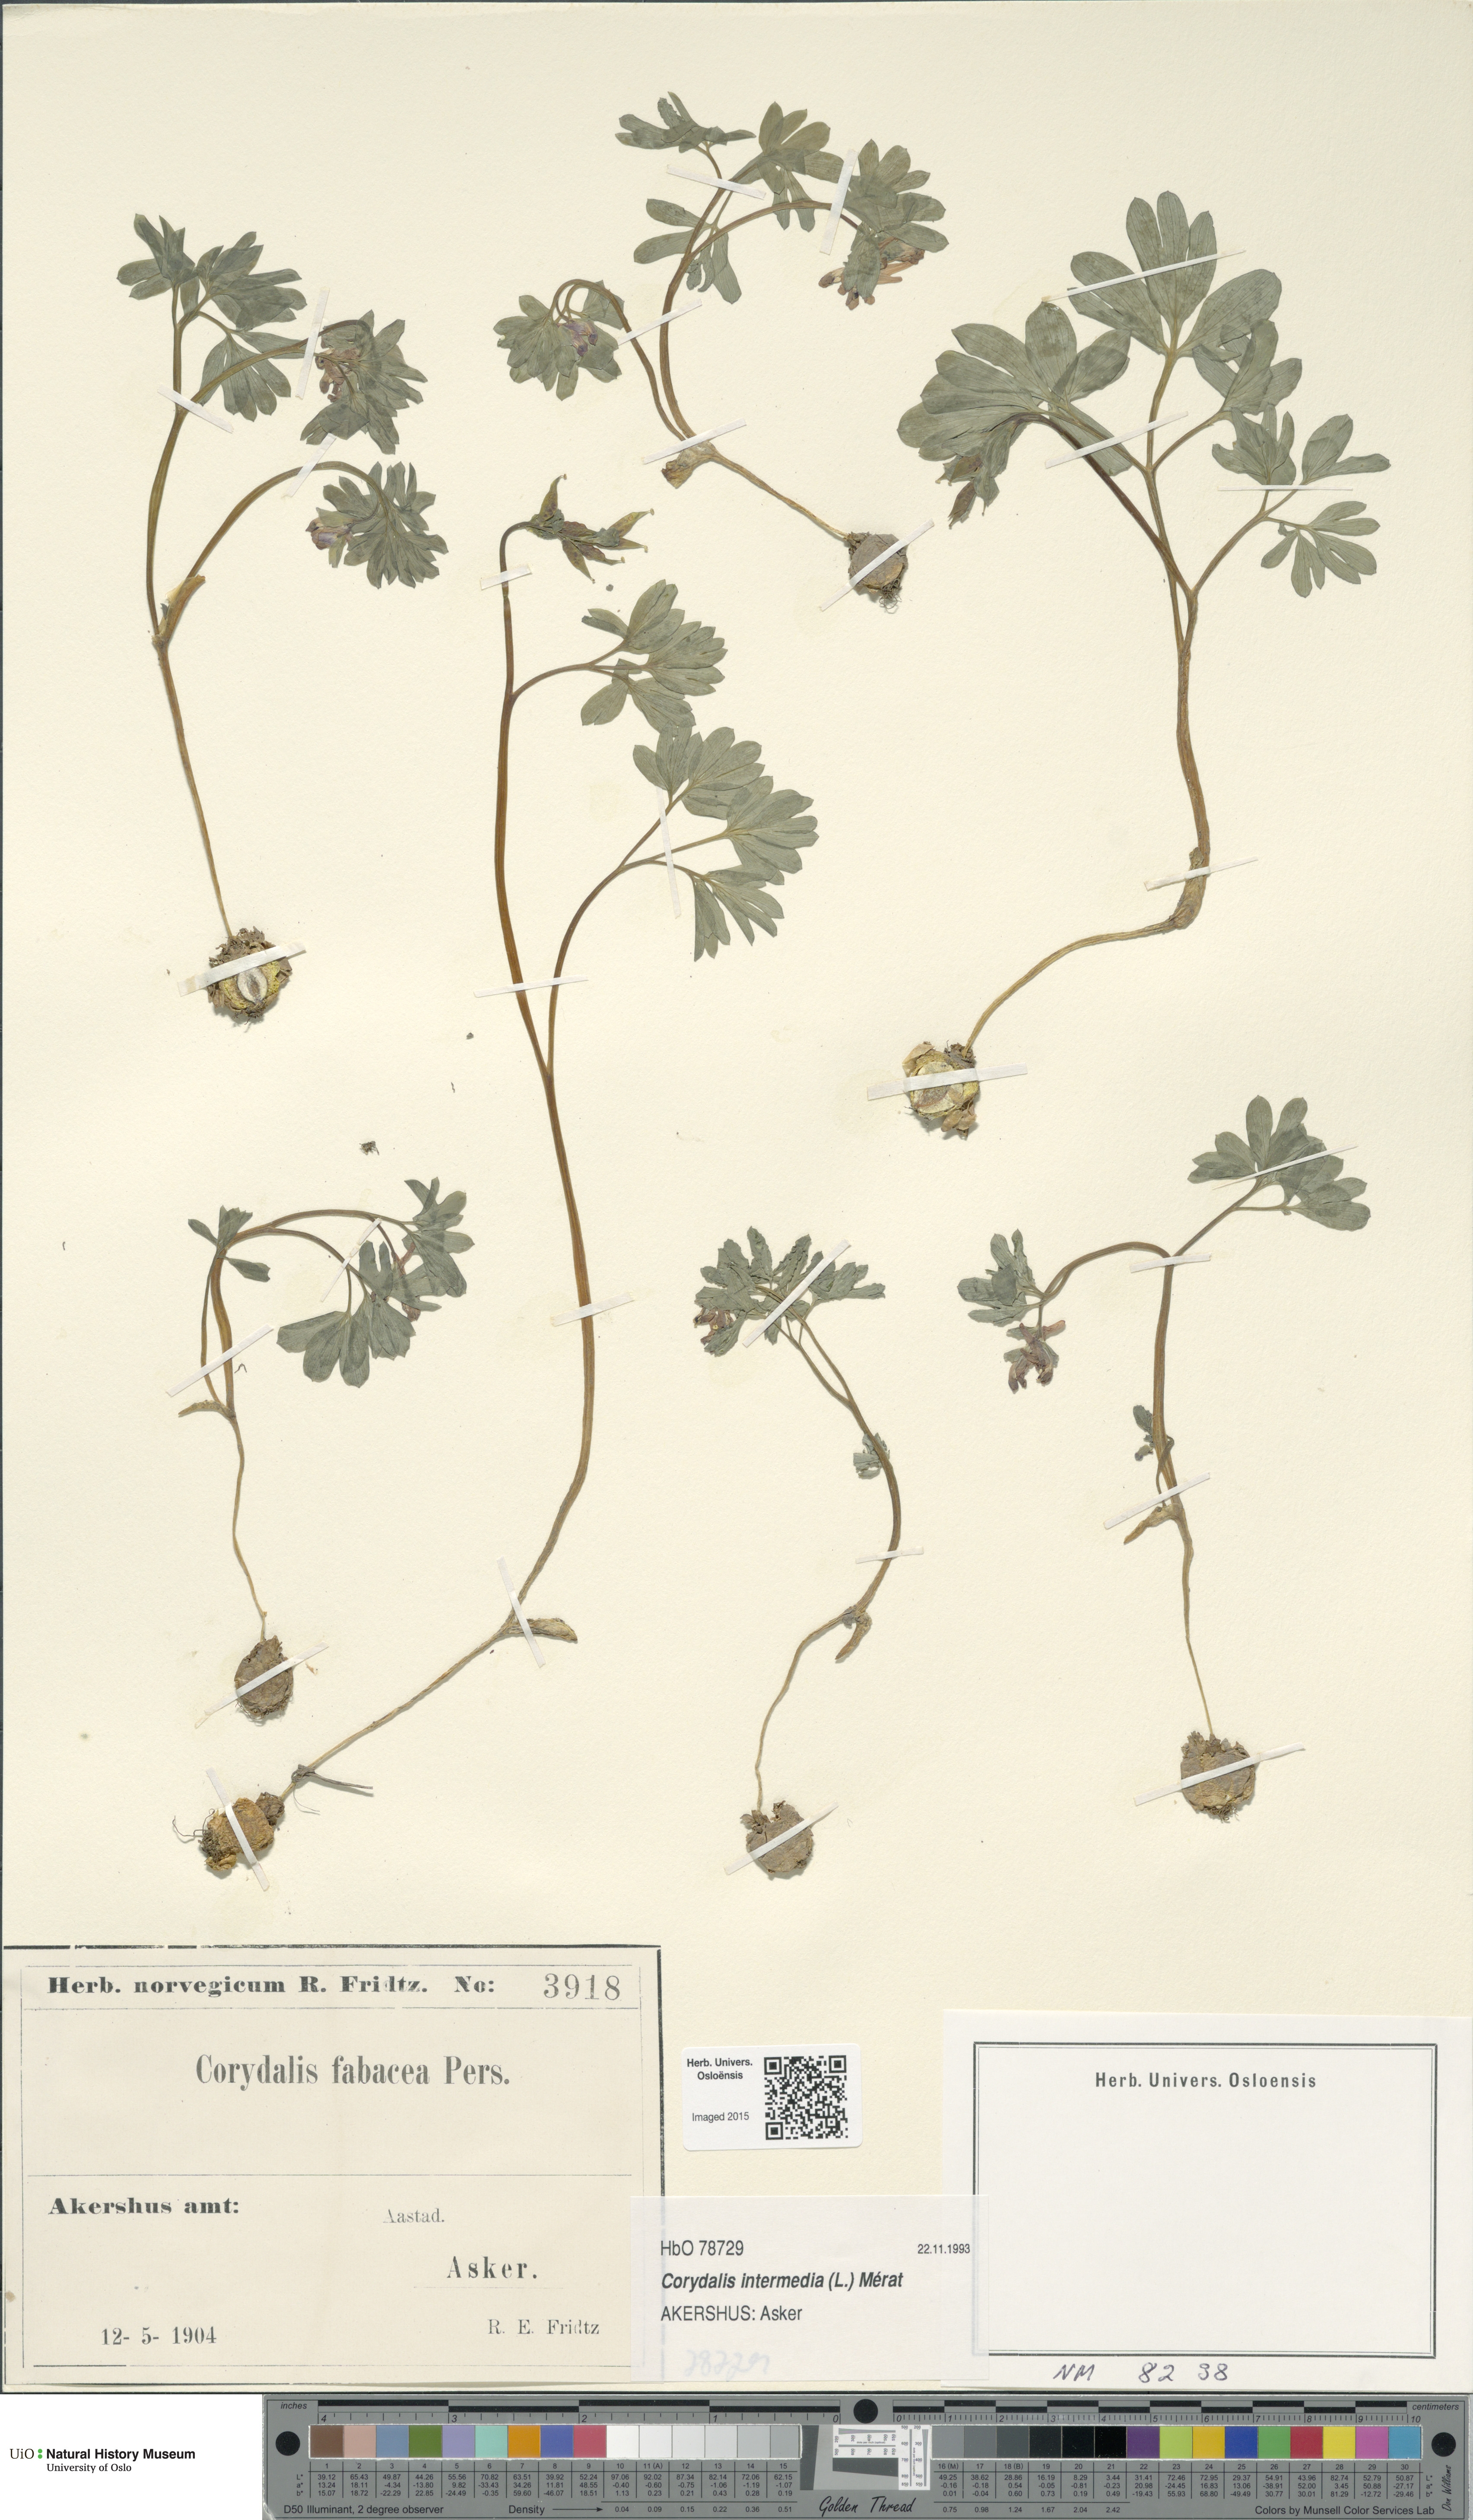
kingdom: Plantae
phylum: Tracheophyta
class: Magnoliopsida
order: Ranunculales
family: Papaveraceae
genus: Corydalis
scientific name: Corydalis intermedia
